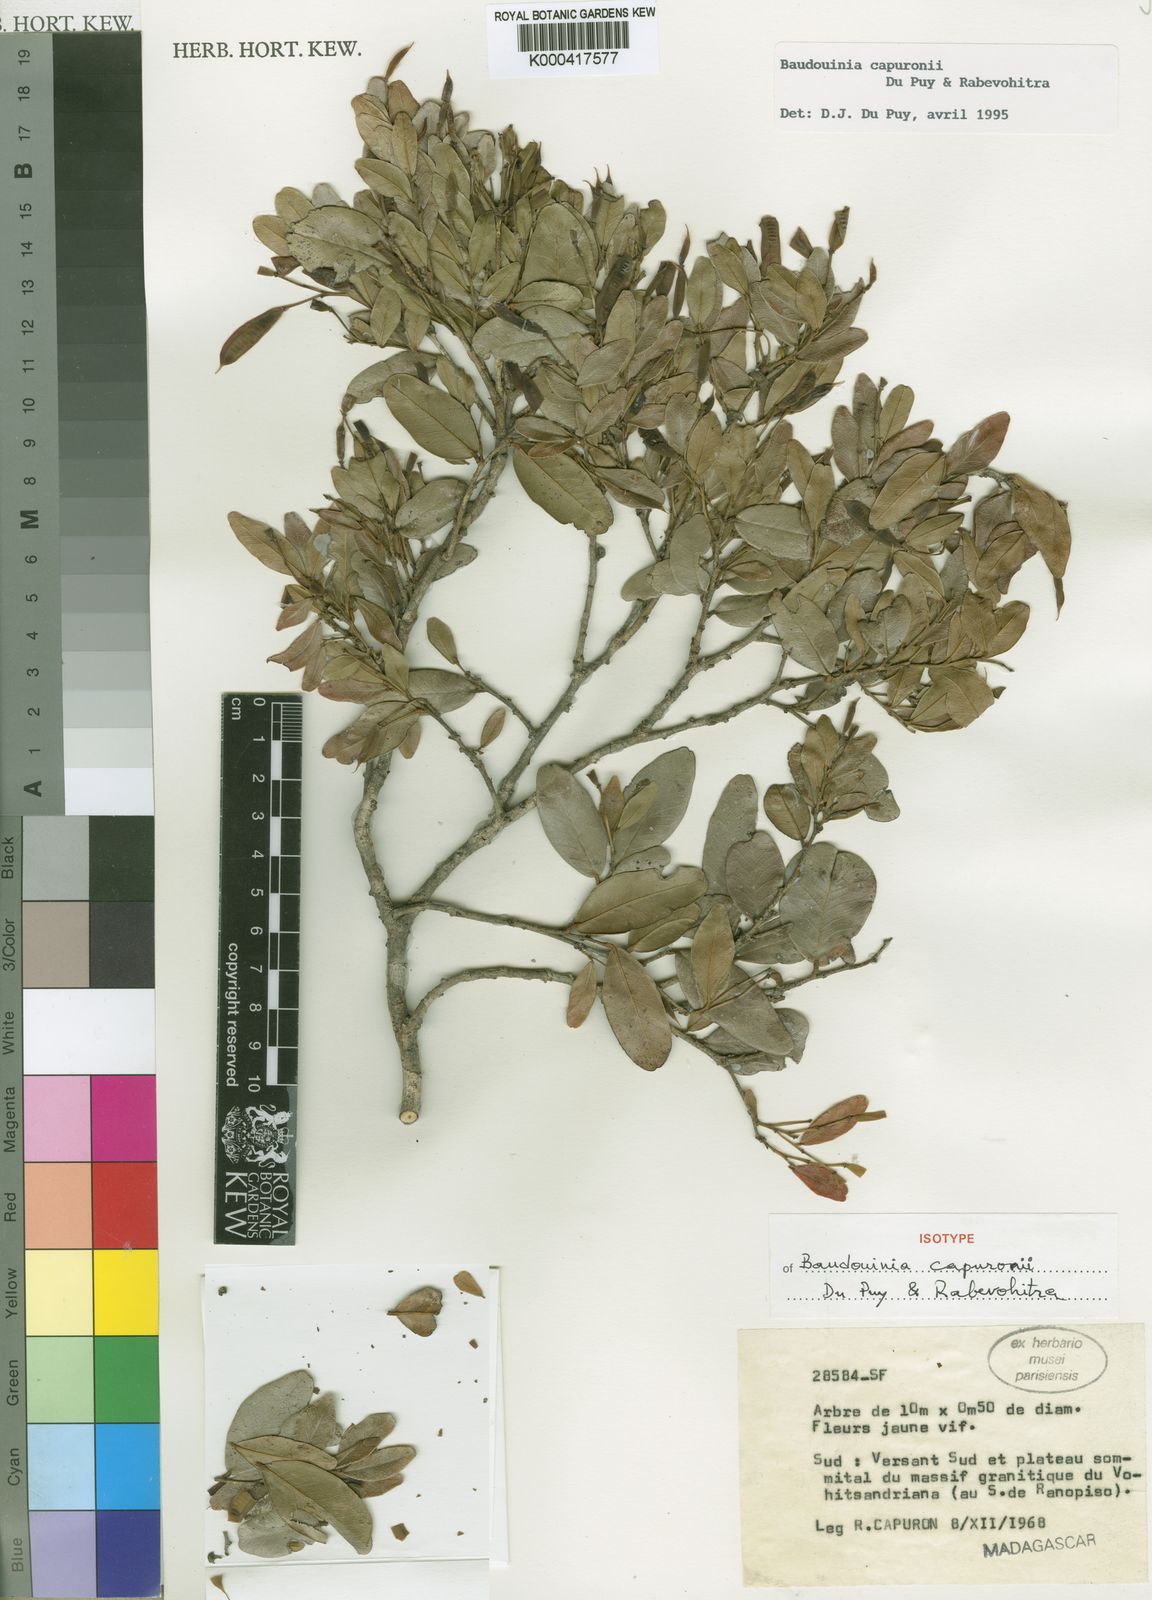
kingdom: Plantae
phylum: Tracheophyta
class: Magnoliopsida
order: Fabales
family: Fabaceae
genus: Baudouinia
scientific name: Baudouinia capuronii
